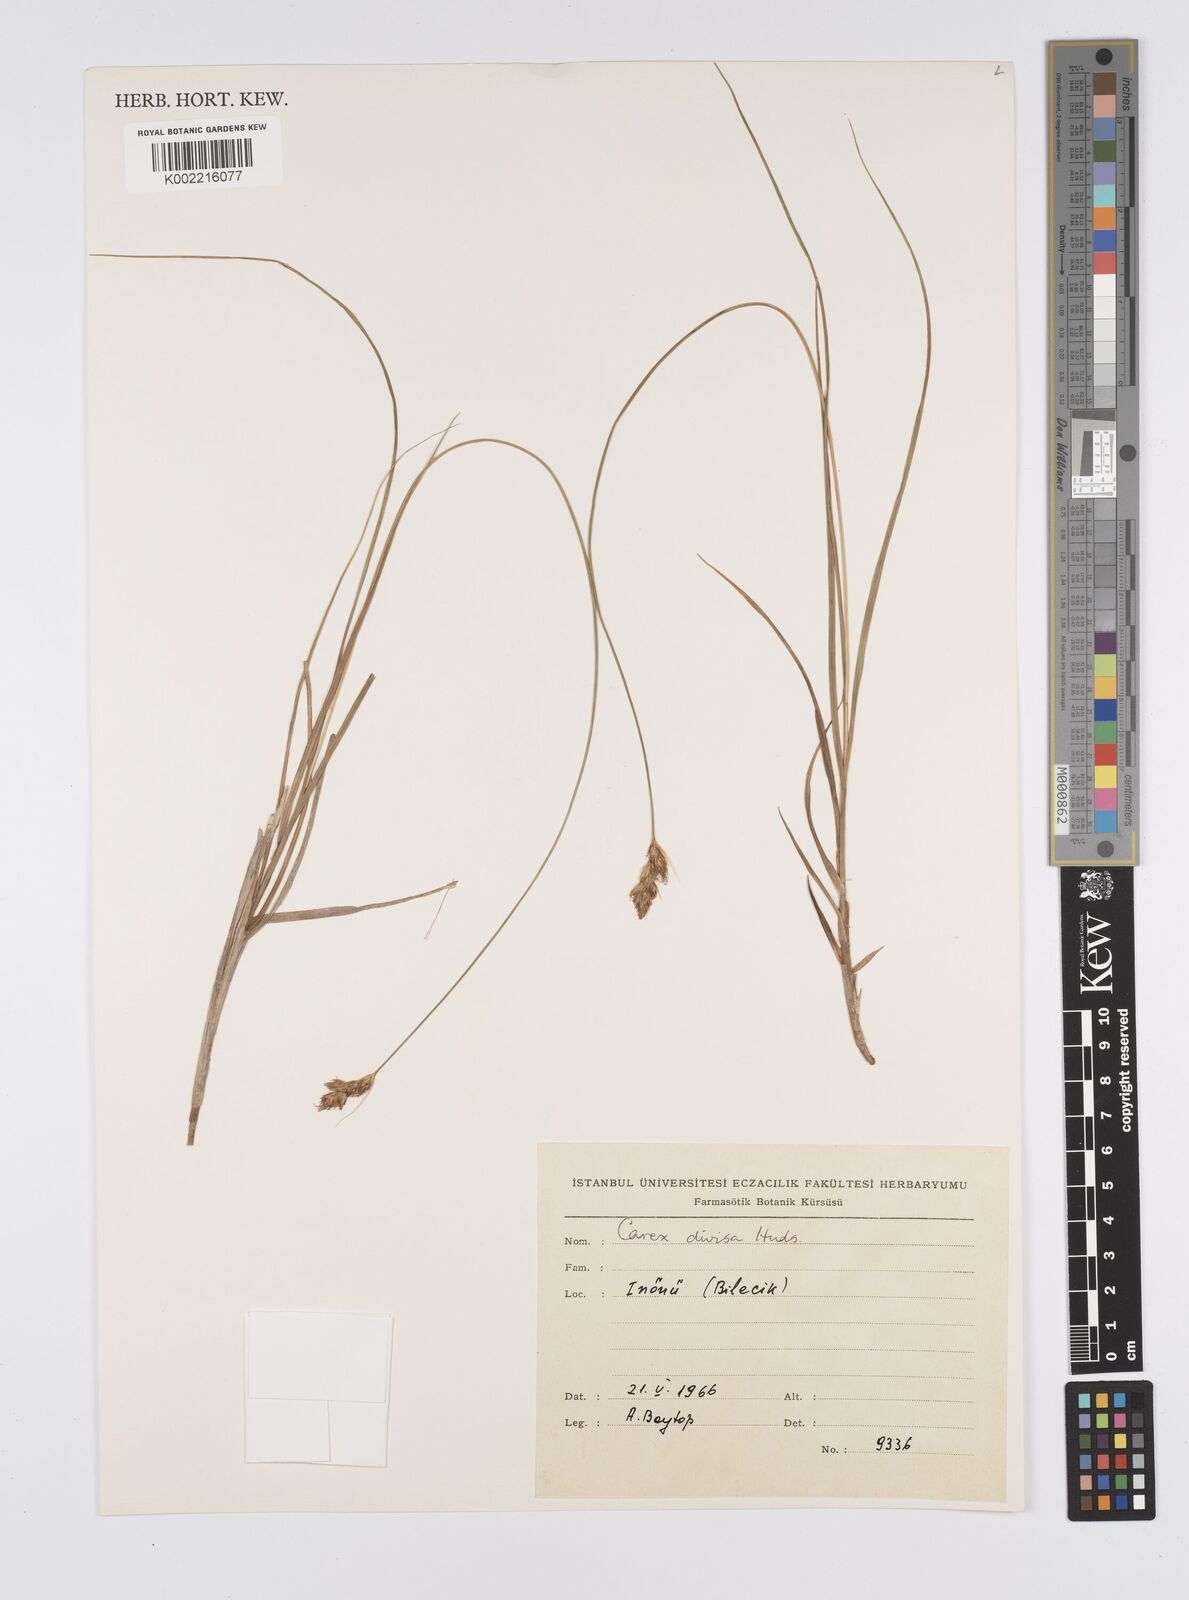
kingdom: Plantae
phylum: Tracheophyta
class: Liliopsida
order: Poales
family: Cyperaceae
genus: Carex
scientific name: Carex divisa
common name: Divided sedge
